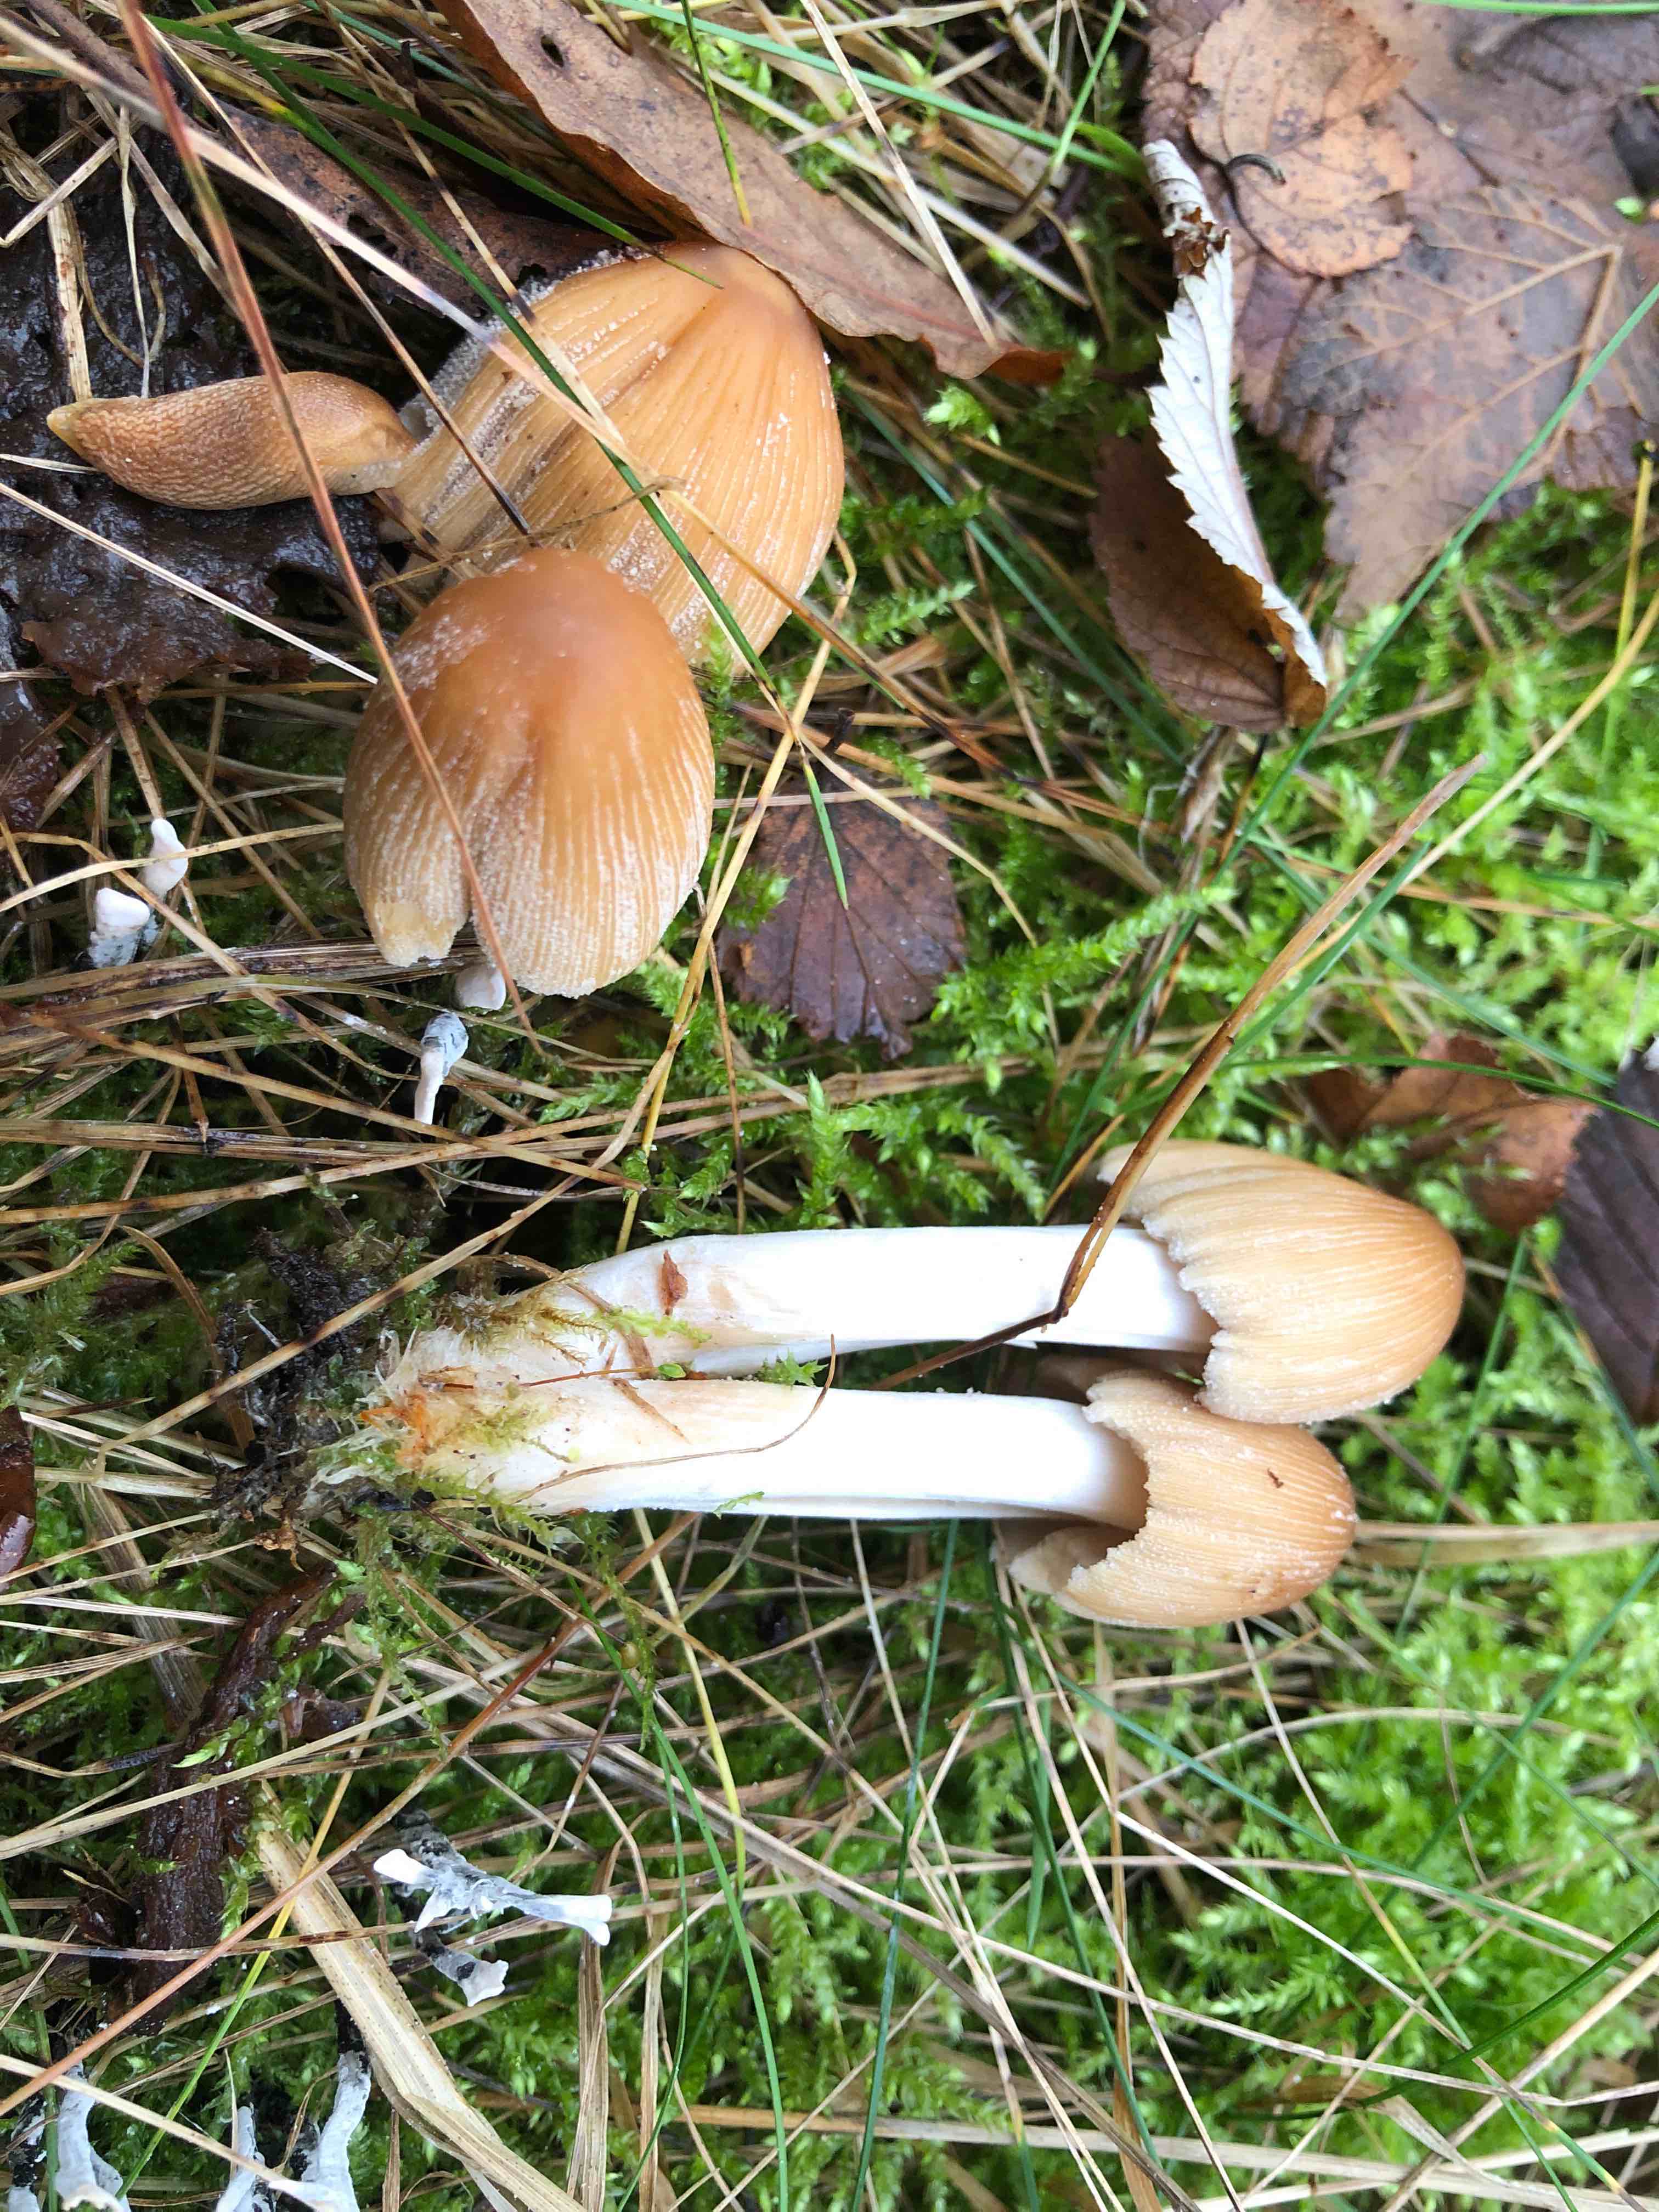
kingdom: Fungi
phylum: Basidiomycota
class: Agaricomycetes
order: Agaricales
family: Psathyrellaceae
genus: Coprinellus
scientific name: Coprinellus micaceus
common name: glimmer-blækhat
